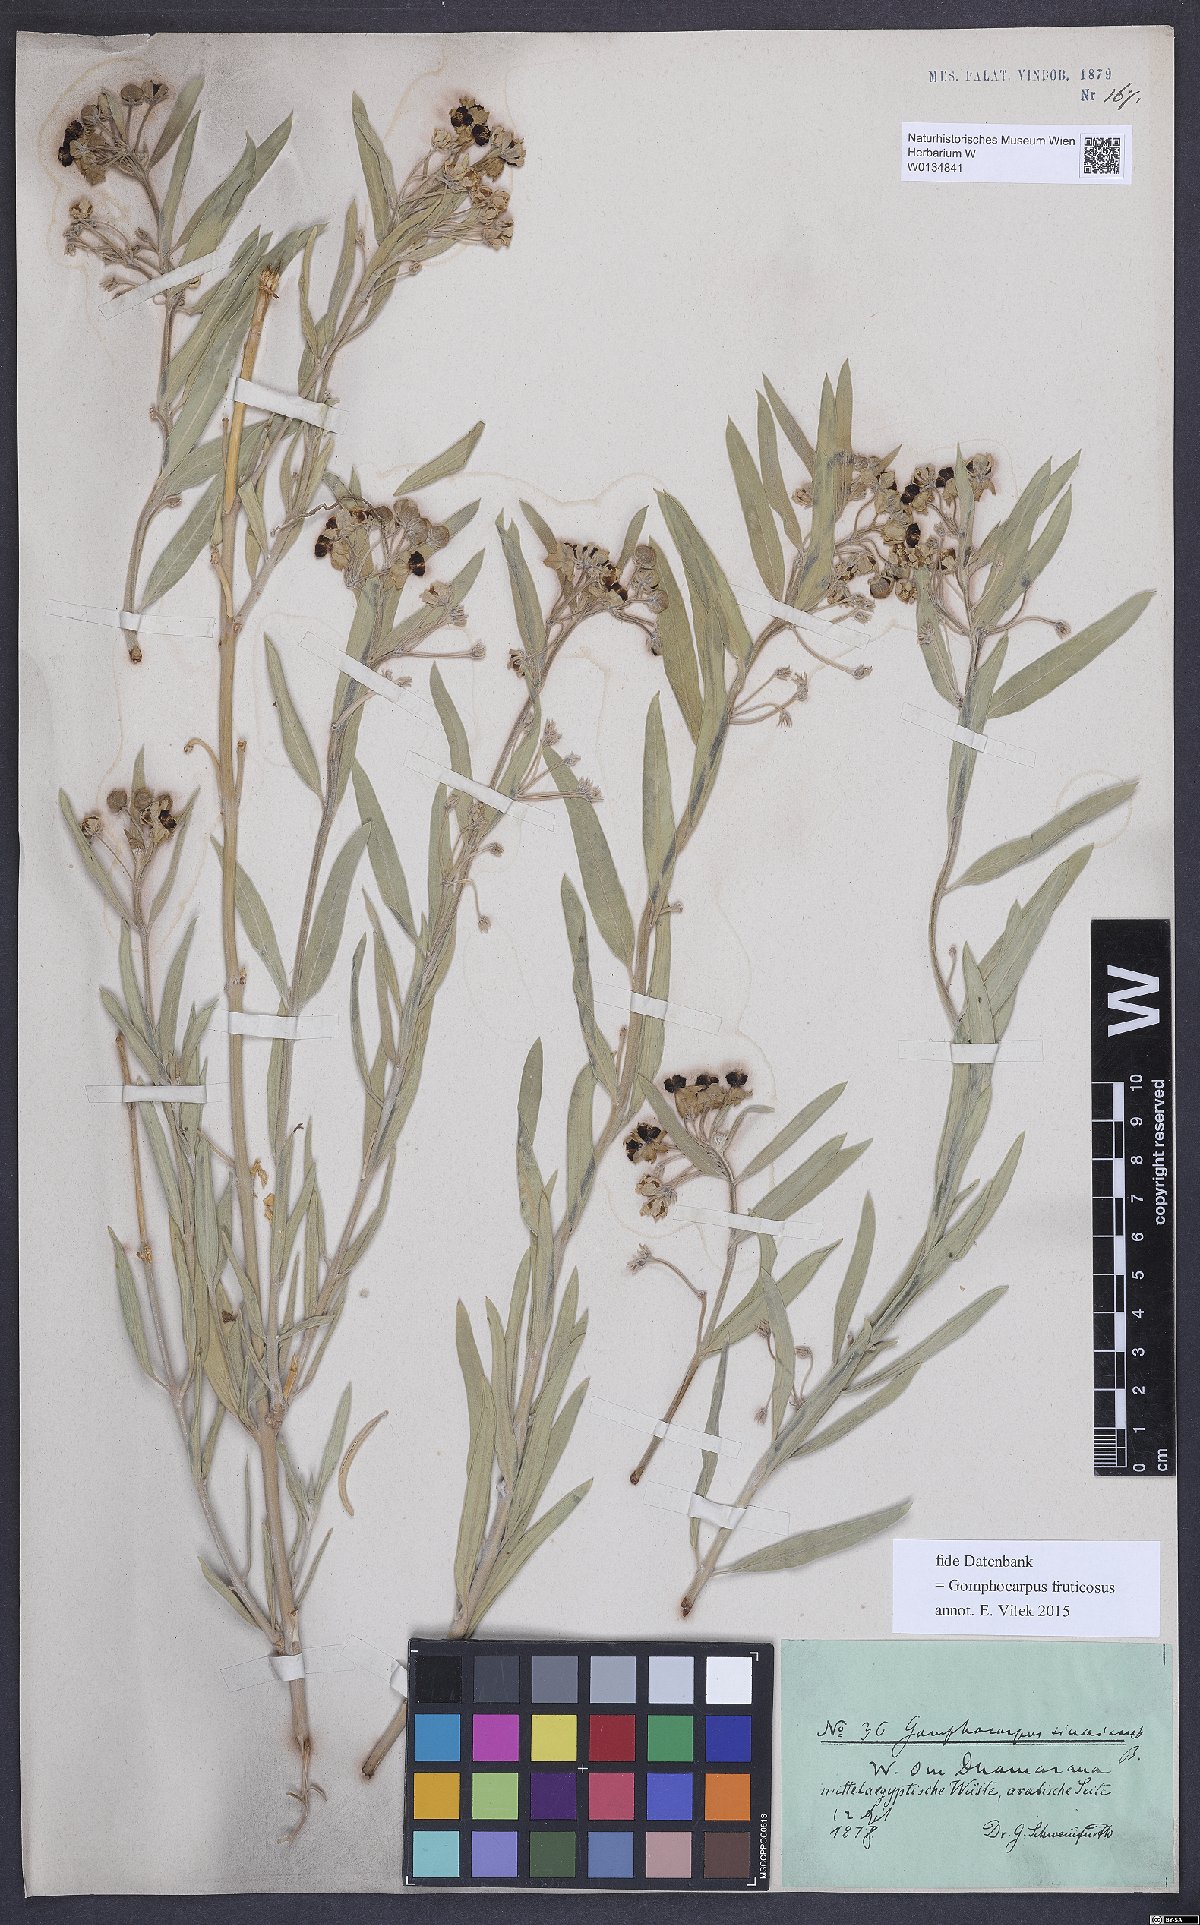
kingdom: Plantae
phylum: Tracheophyta
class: Magnoliopsida
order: Gentianales
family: Apocynaceae
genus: Gomphocarpus
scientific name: Gomphocarpus fruticosus
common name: Milkweed
